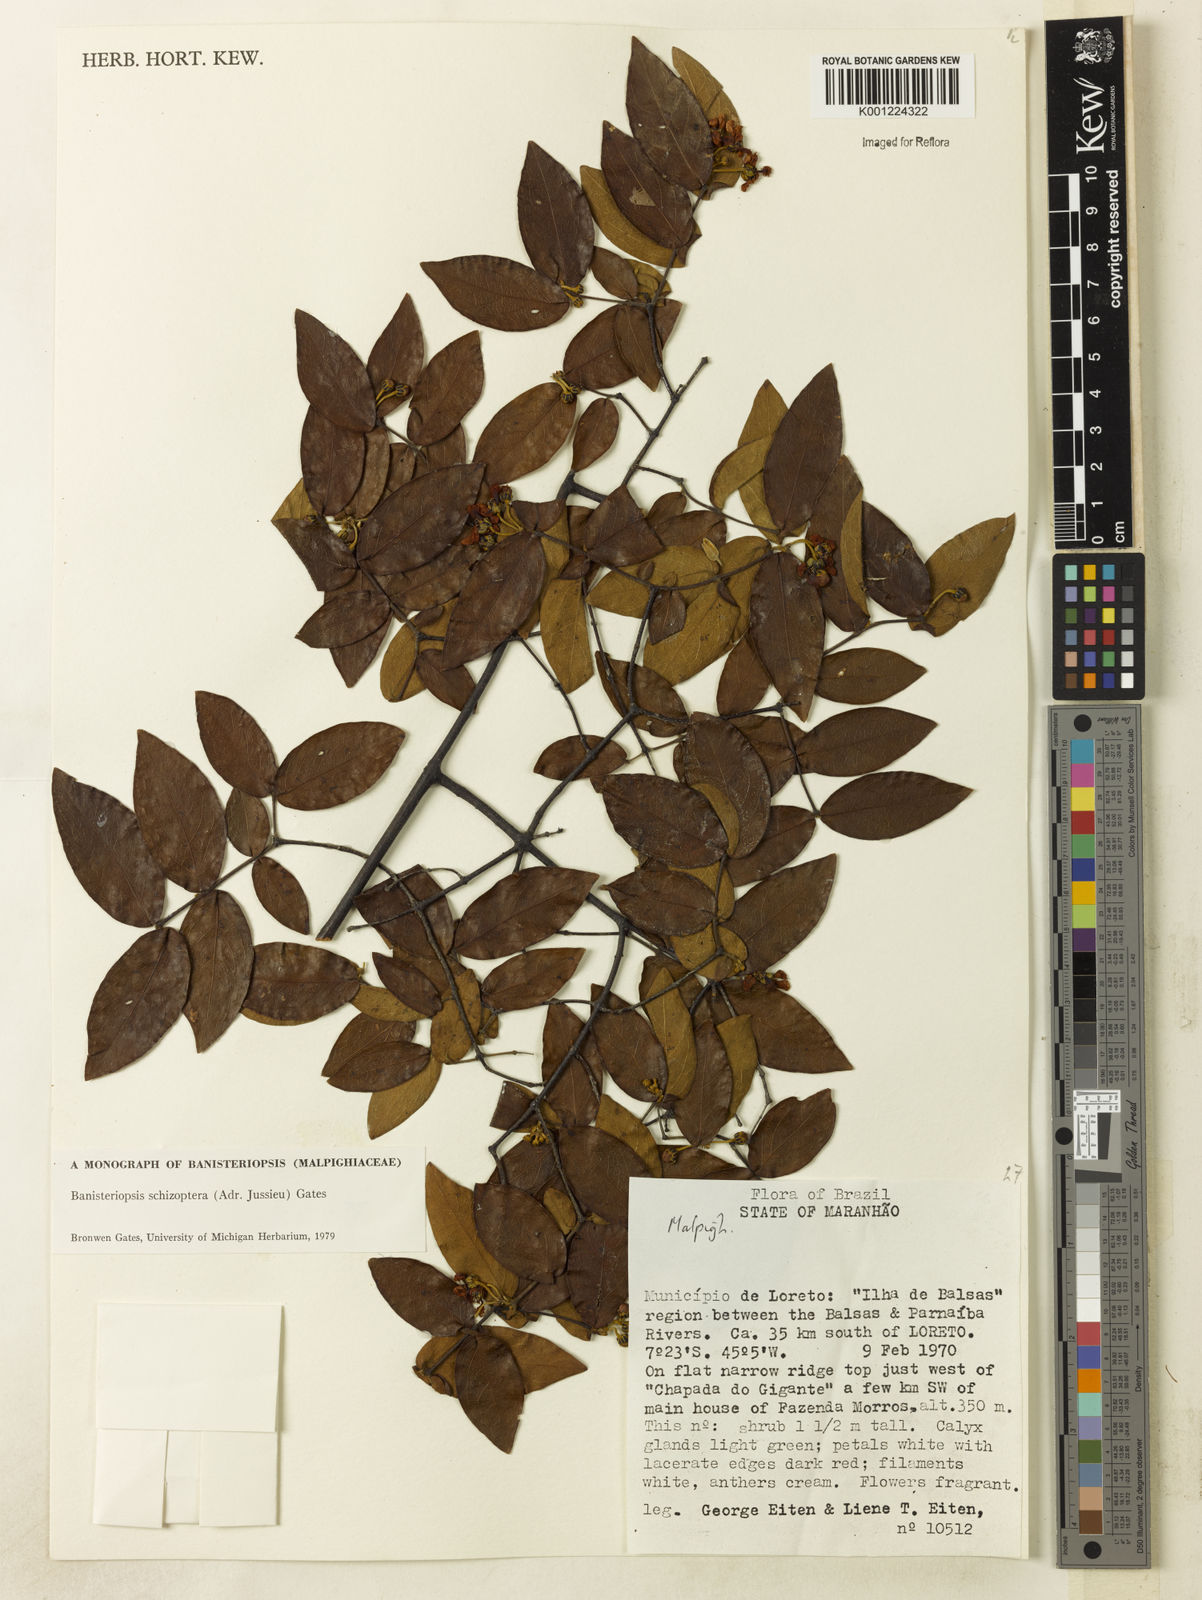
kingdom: Plantae
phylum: Tracheophyta
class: Magnoliopsida
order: Malpighiales
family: Malpighiaceae
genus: Banisteriopsis
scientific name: Banisteriopsis schizoptera
